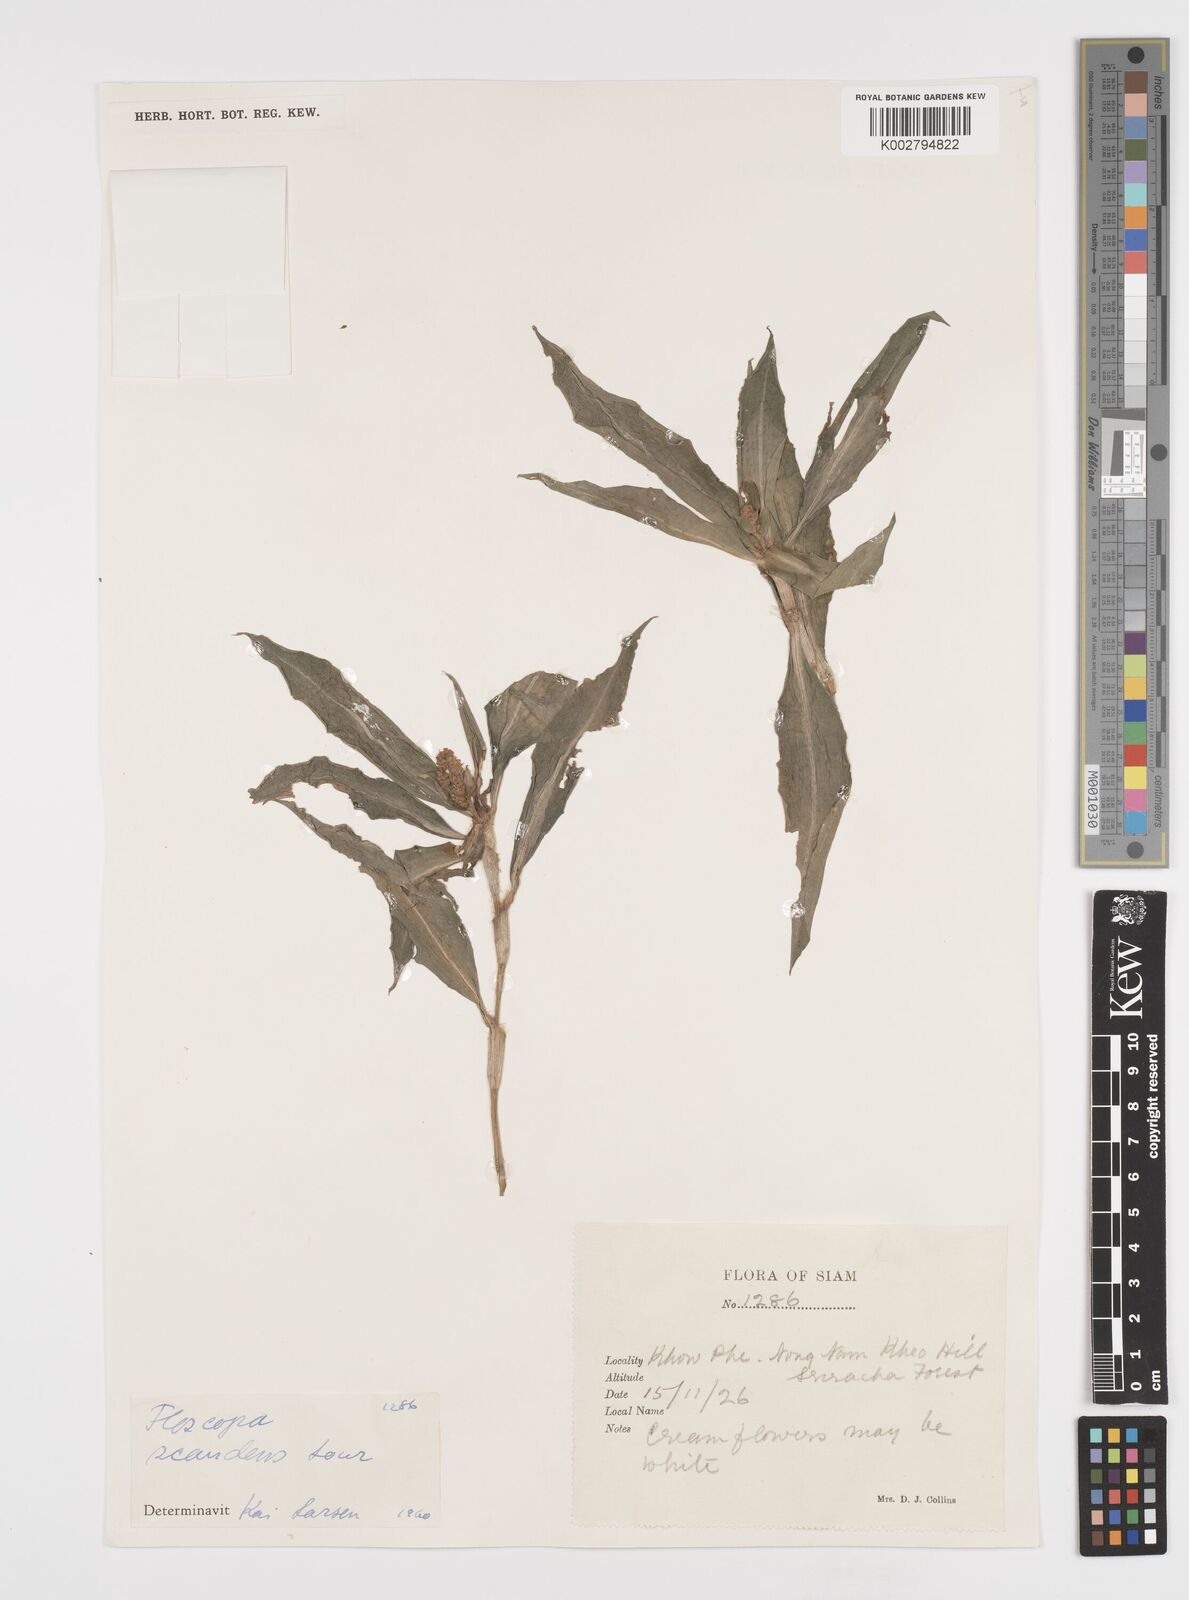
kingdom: Plantae
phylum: Tracheophyta
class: Liliopsida
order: Commelinales
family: Commelinaceae
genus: Floscopa
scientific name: Floscopa scandens
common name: Climbing flower cup
